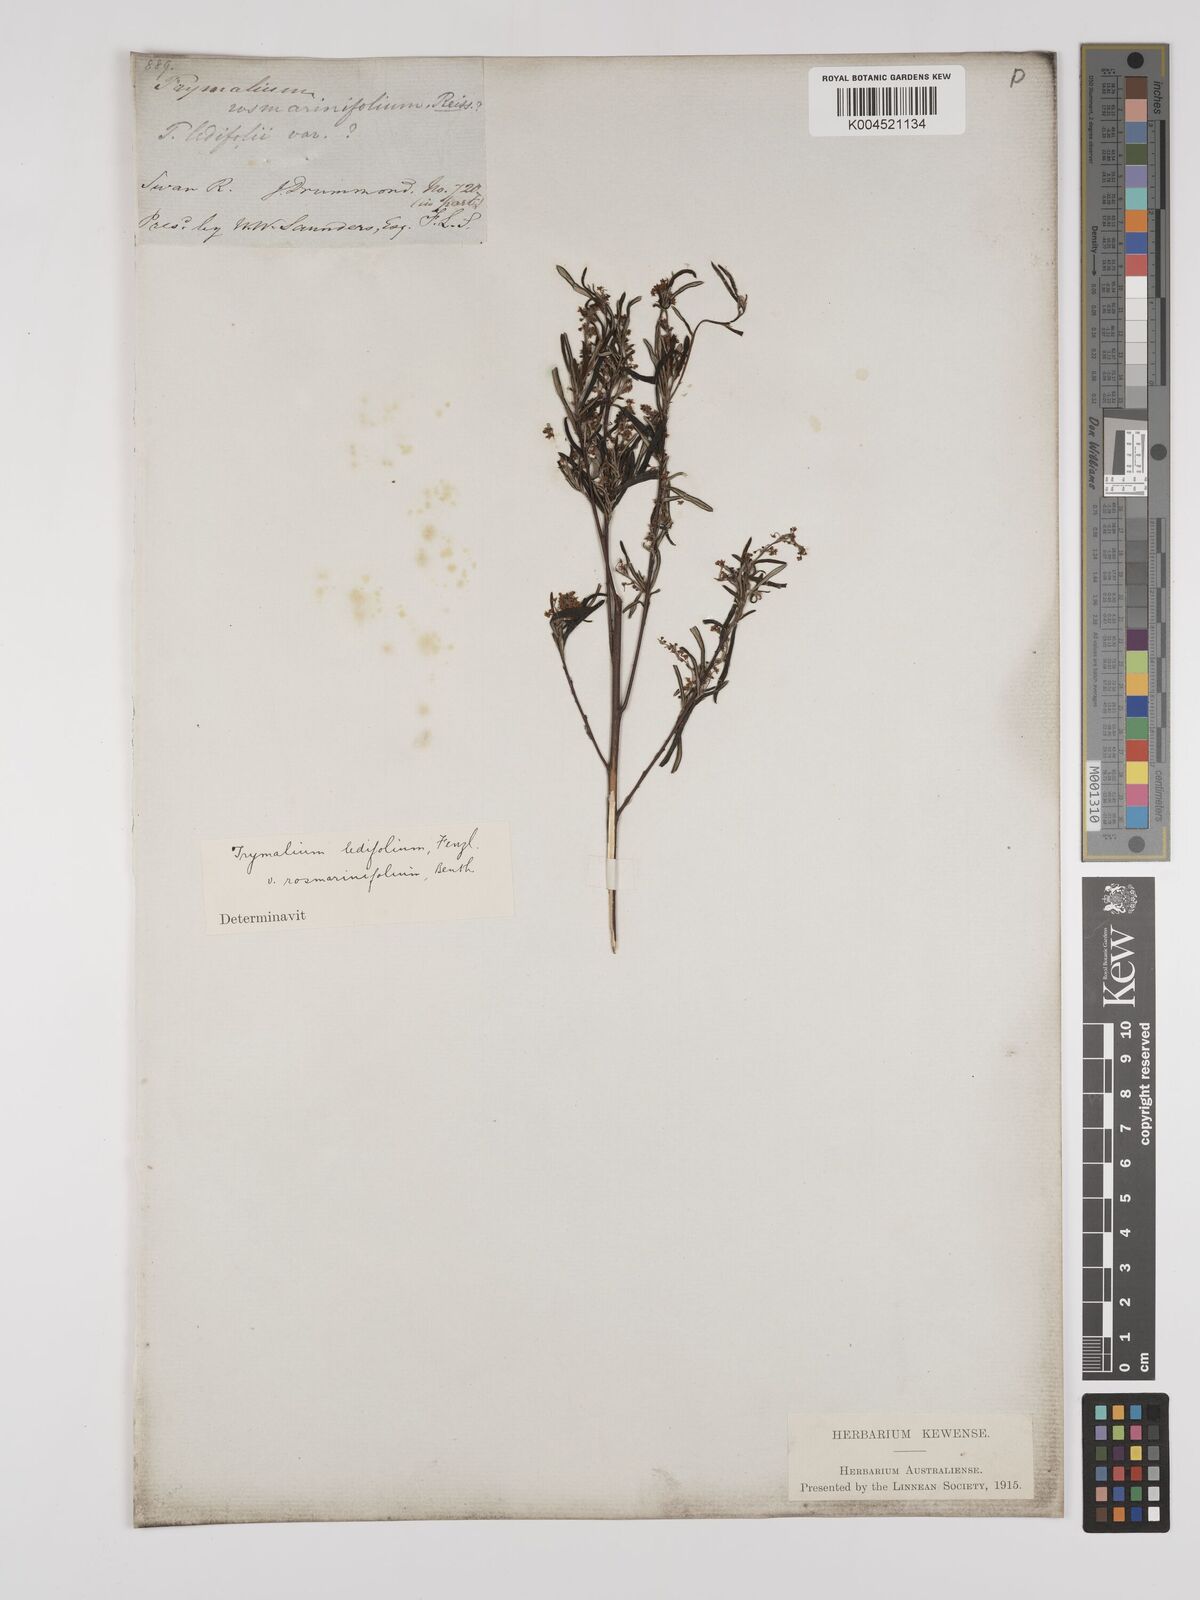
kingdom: Plantae
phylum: Tracheophyta
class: Magnoliopsida
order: Rosales
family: Rhamnaceae
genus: Trymalium
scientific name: Trymalium ledifolium
